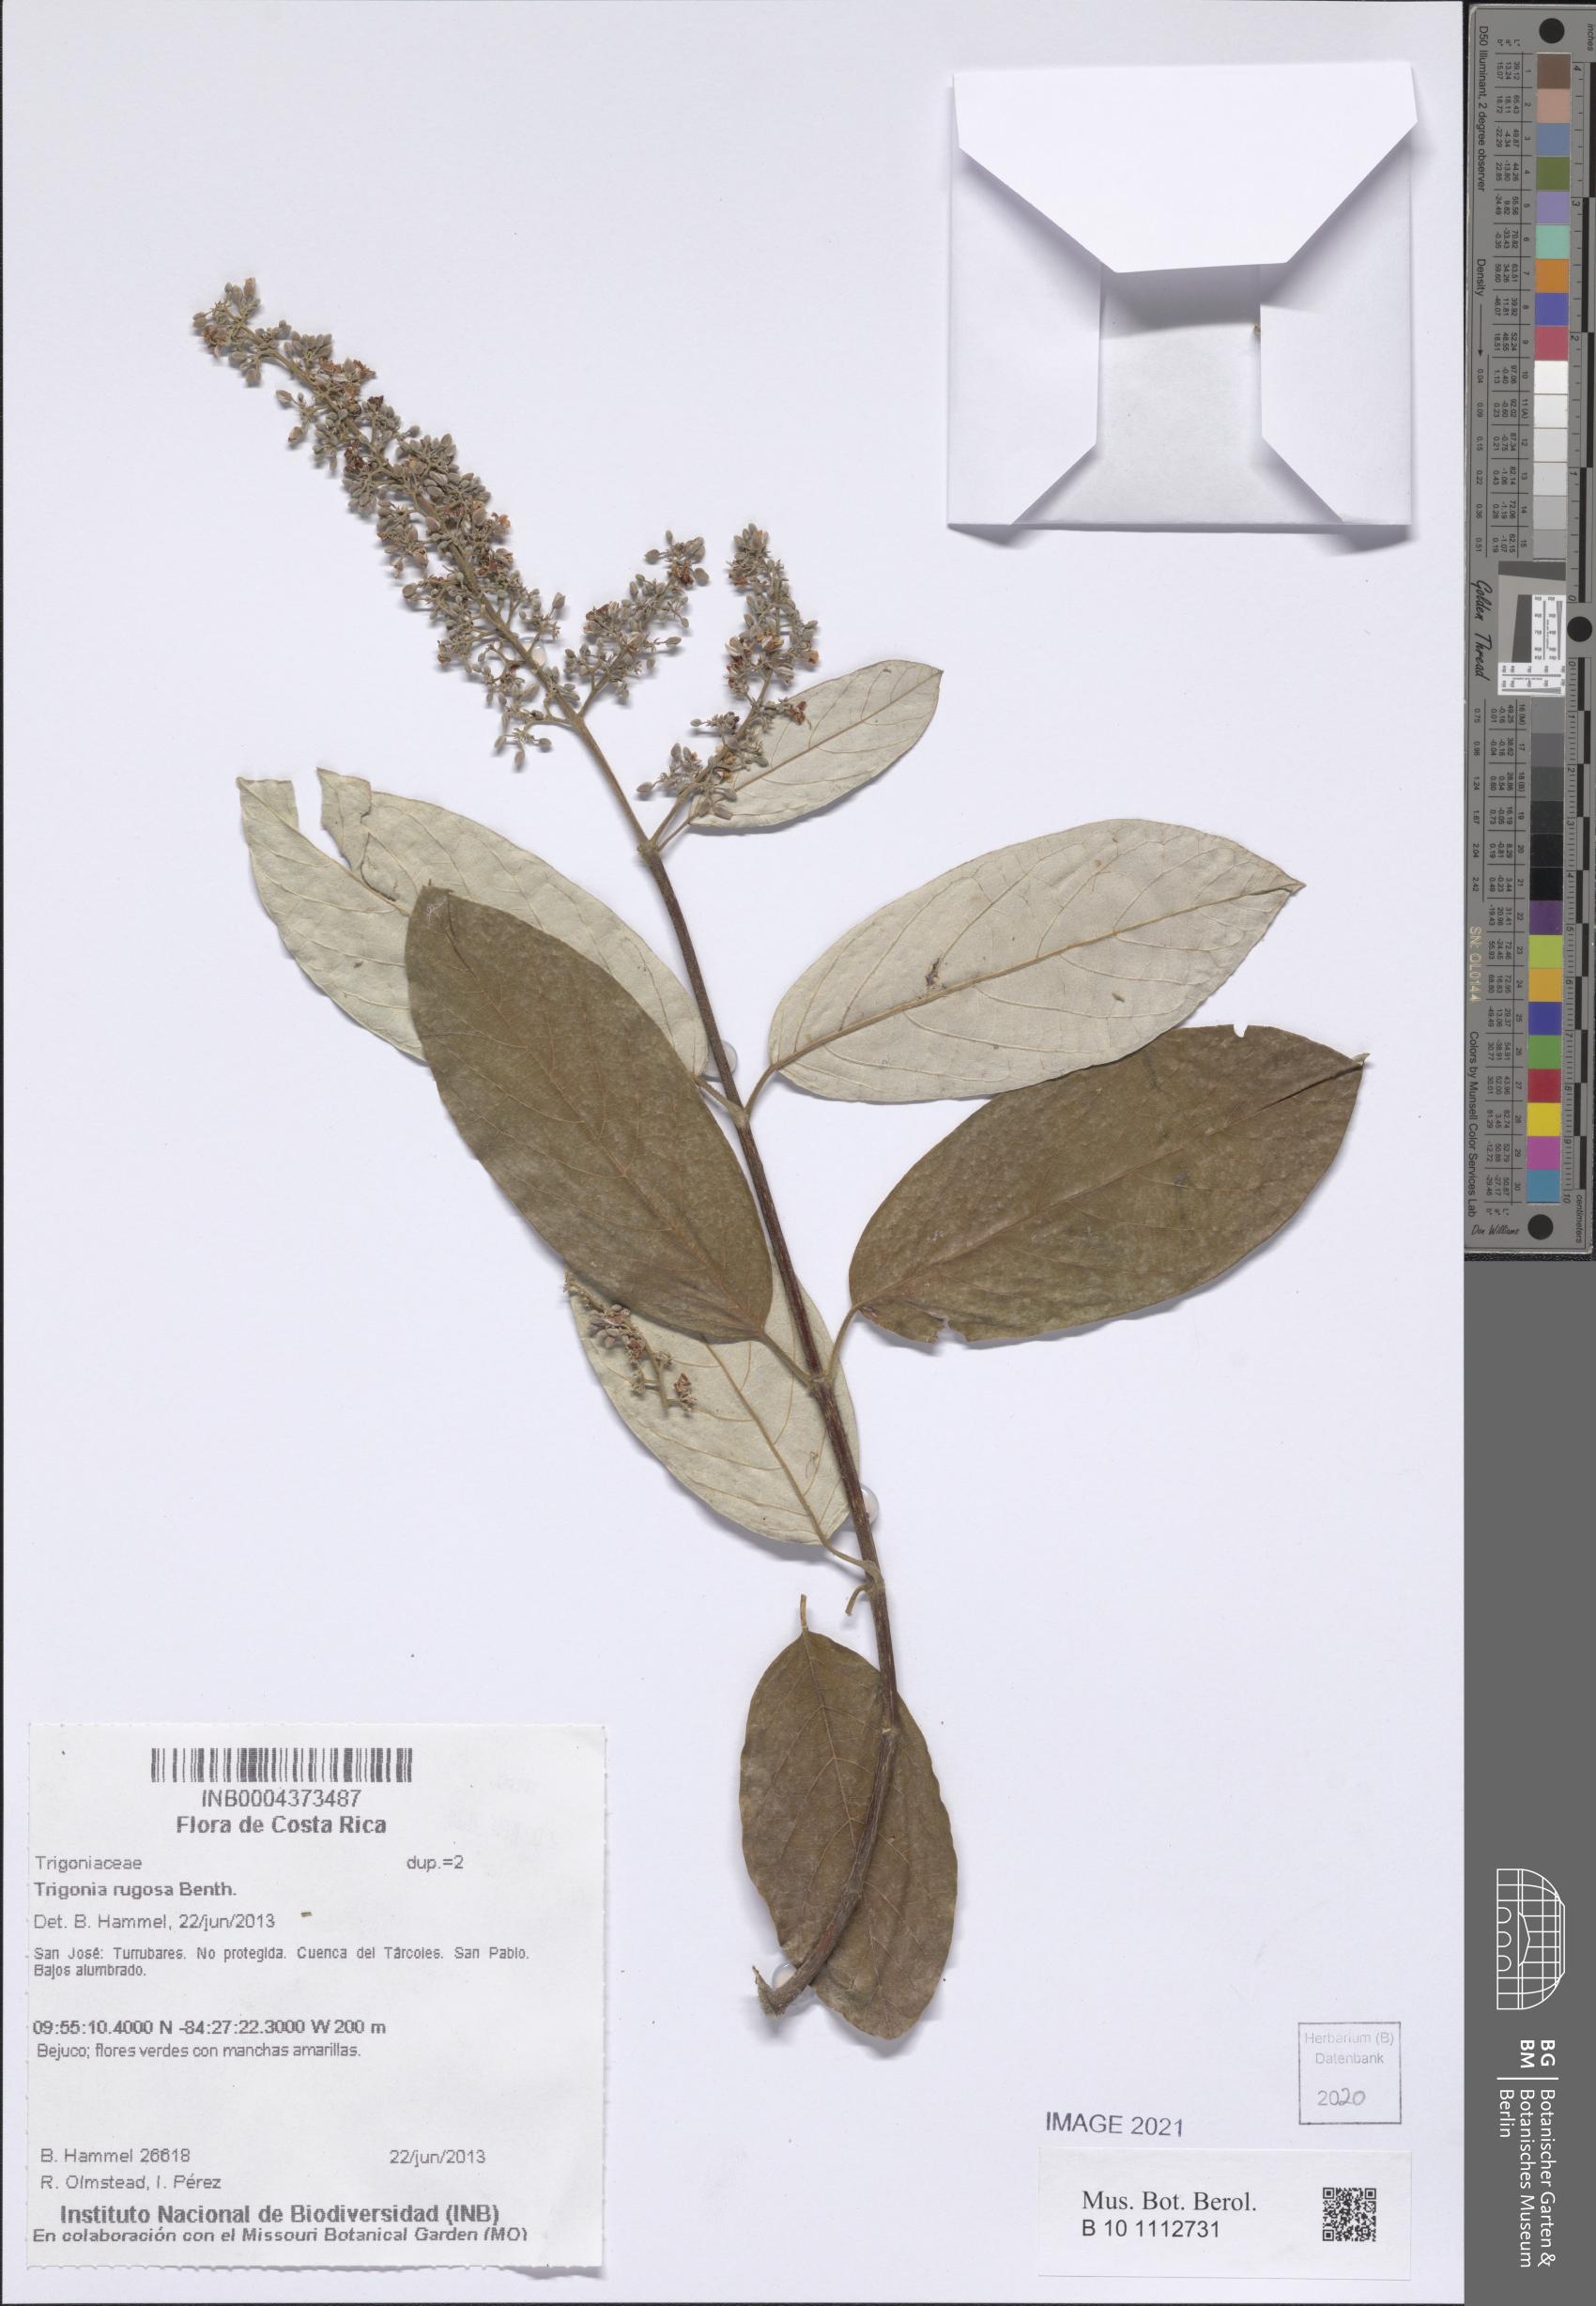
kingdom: Plantae
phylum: Tracheophyta
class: Magnoliopsida
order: Malpighiales
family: Trigoniaceae
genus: Trigonia
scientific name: Trigonia rugosa
